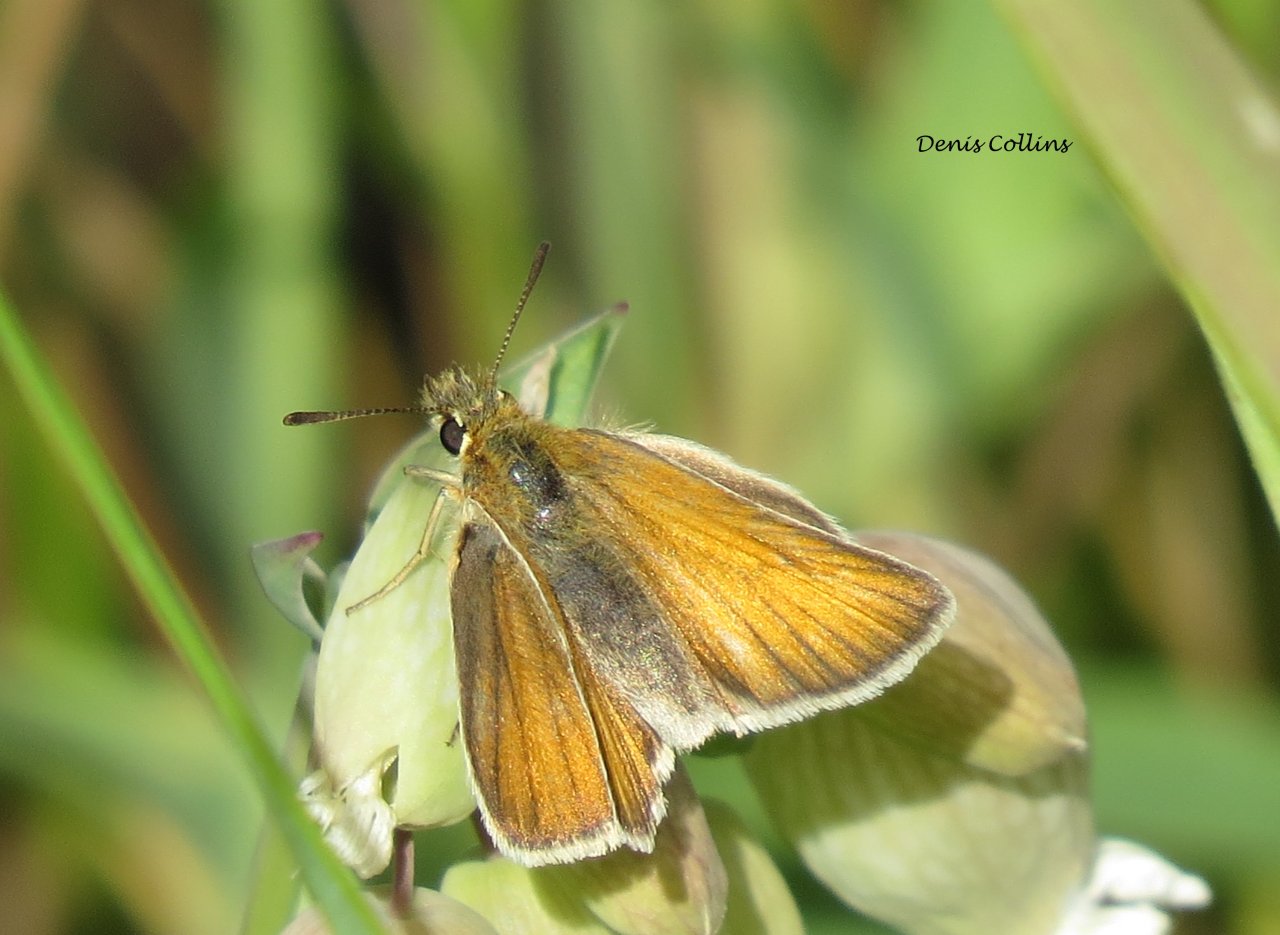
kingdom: Animalia
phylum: Arthropoda
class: Insecta
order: Lepidoptera
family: Hesperiidae
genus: Thymelicus
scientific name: Thymelicus lineola
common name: European Skipper
